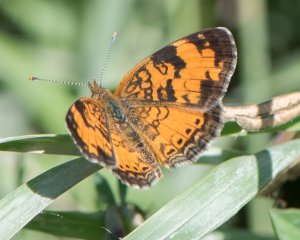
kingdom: Animalia
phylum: Arthropoda
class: Insecta
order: Lepidoptera
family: Nymphalidae
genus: Phyciodes
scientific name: Phyciodes tharos
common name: Northern Crescent
